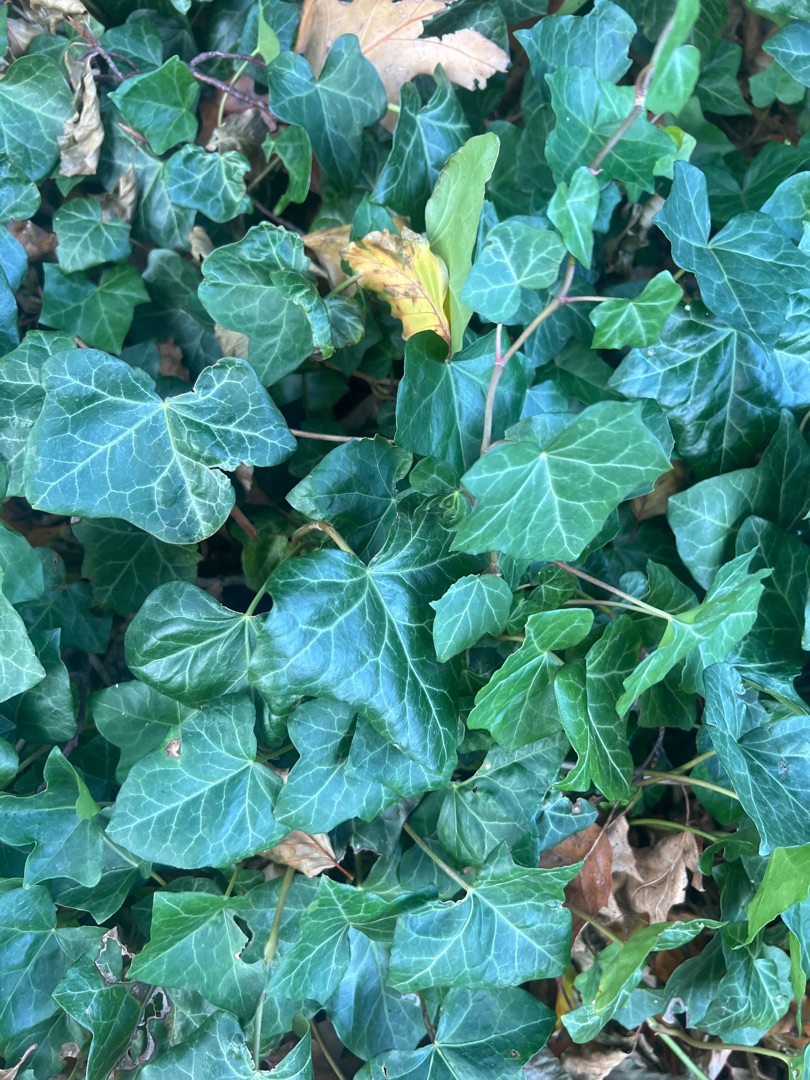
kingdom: Plantae
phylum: Tracheophyta
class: Magnoliopsida
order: Apiales
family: Araliaceae
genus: Hedera
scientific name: Hedera helix
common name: Vedbend
